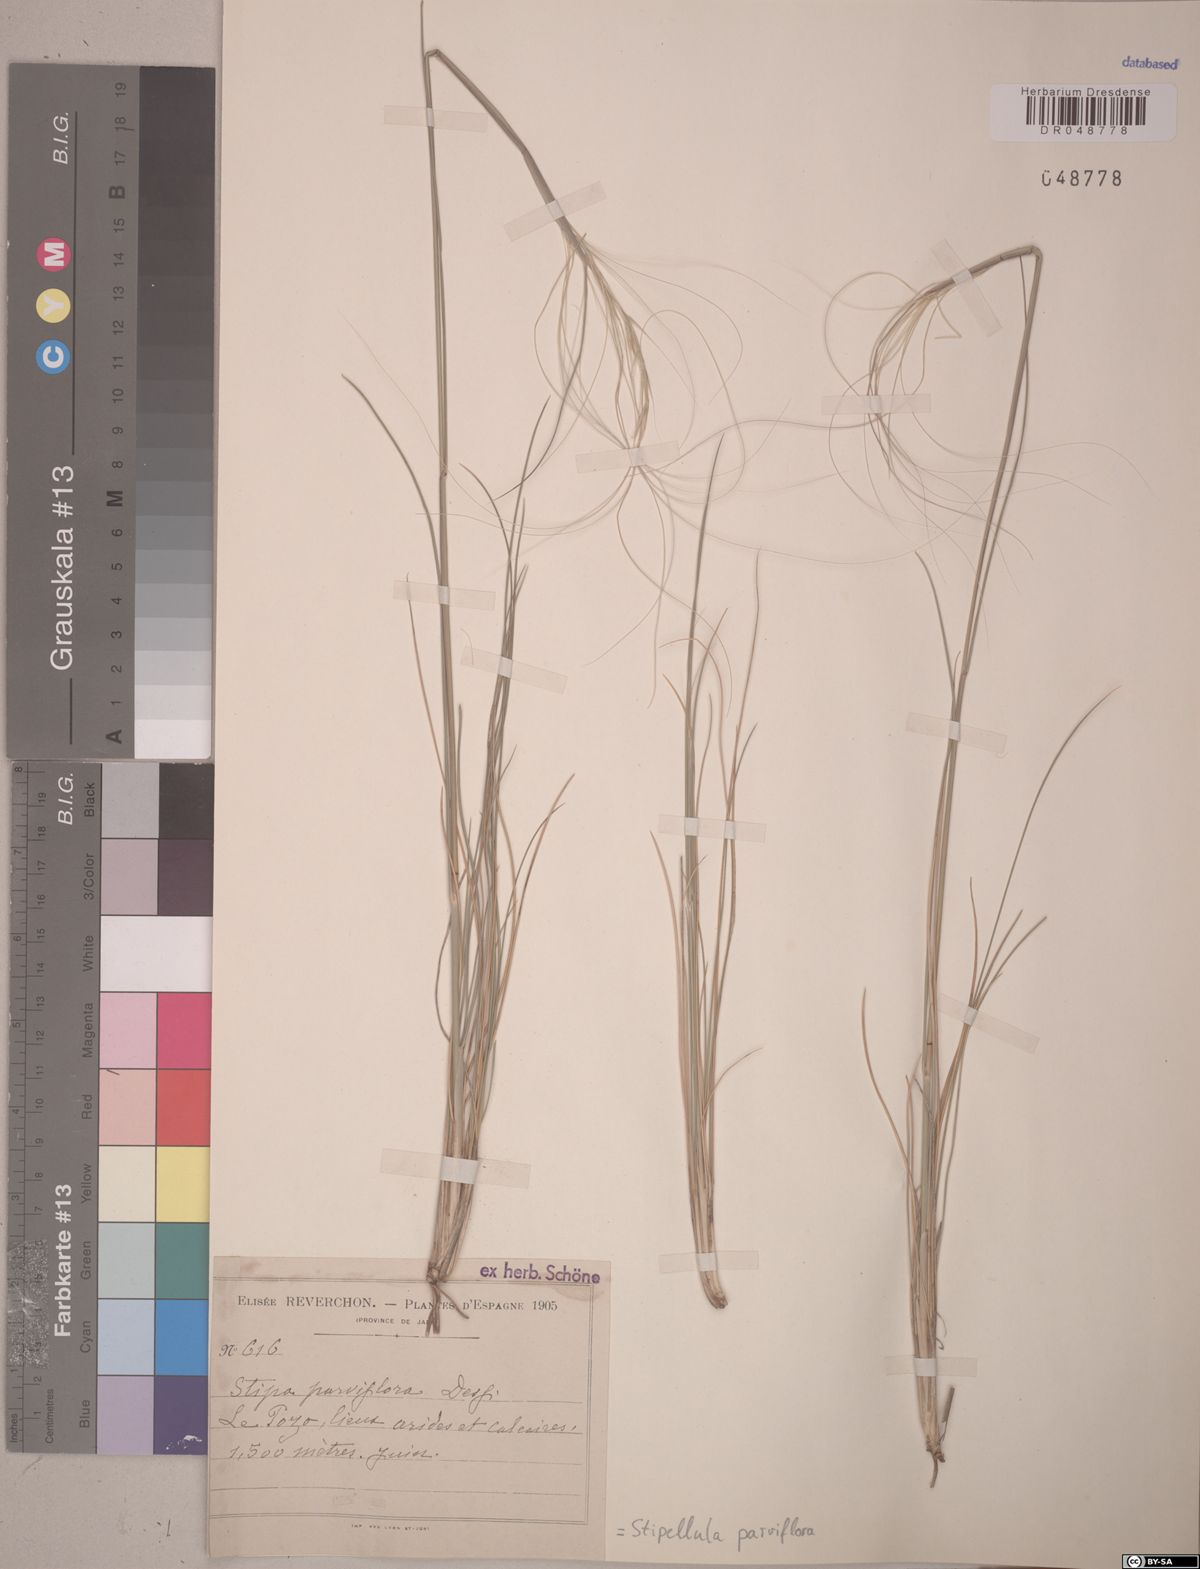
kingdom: Plantae
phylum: Tracheophyta
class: Liliopsida
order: Poales
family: Poaceae
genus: Achnatherum
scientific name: Achnatherum parviflorum
